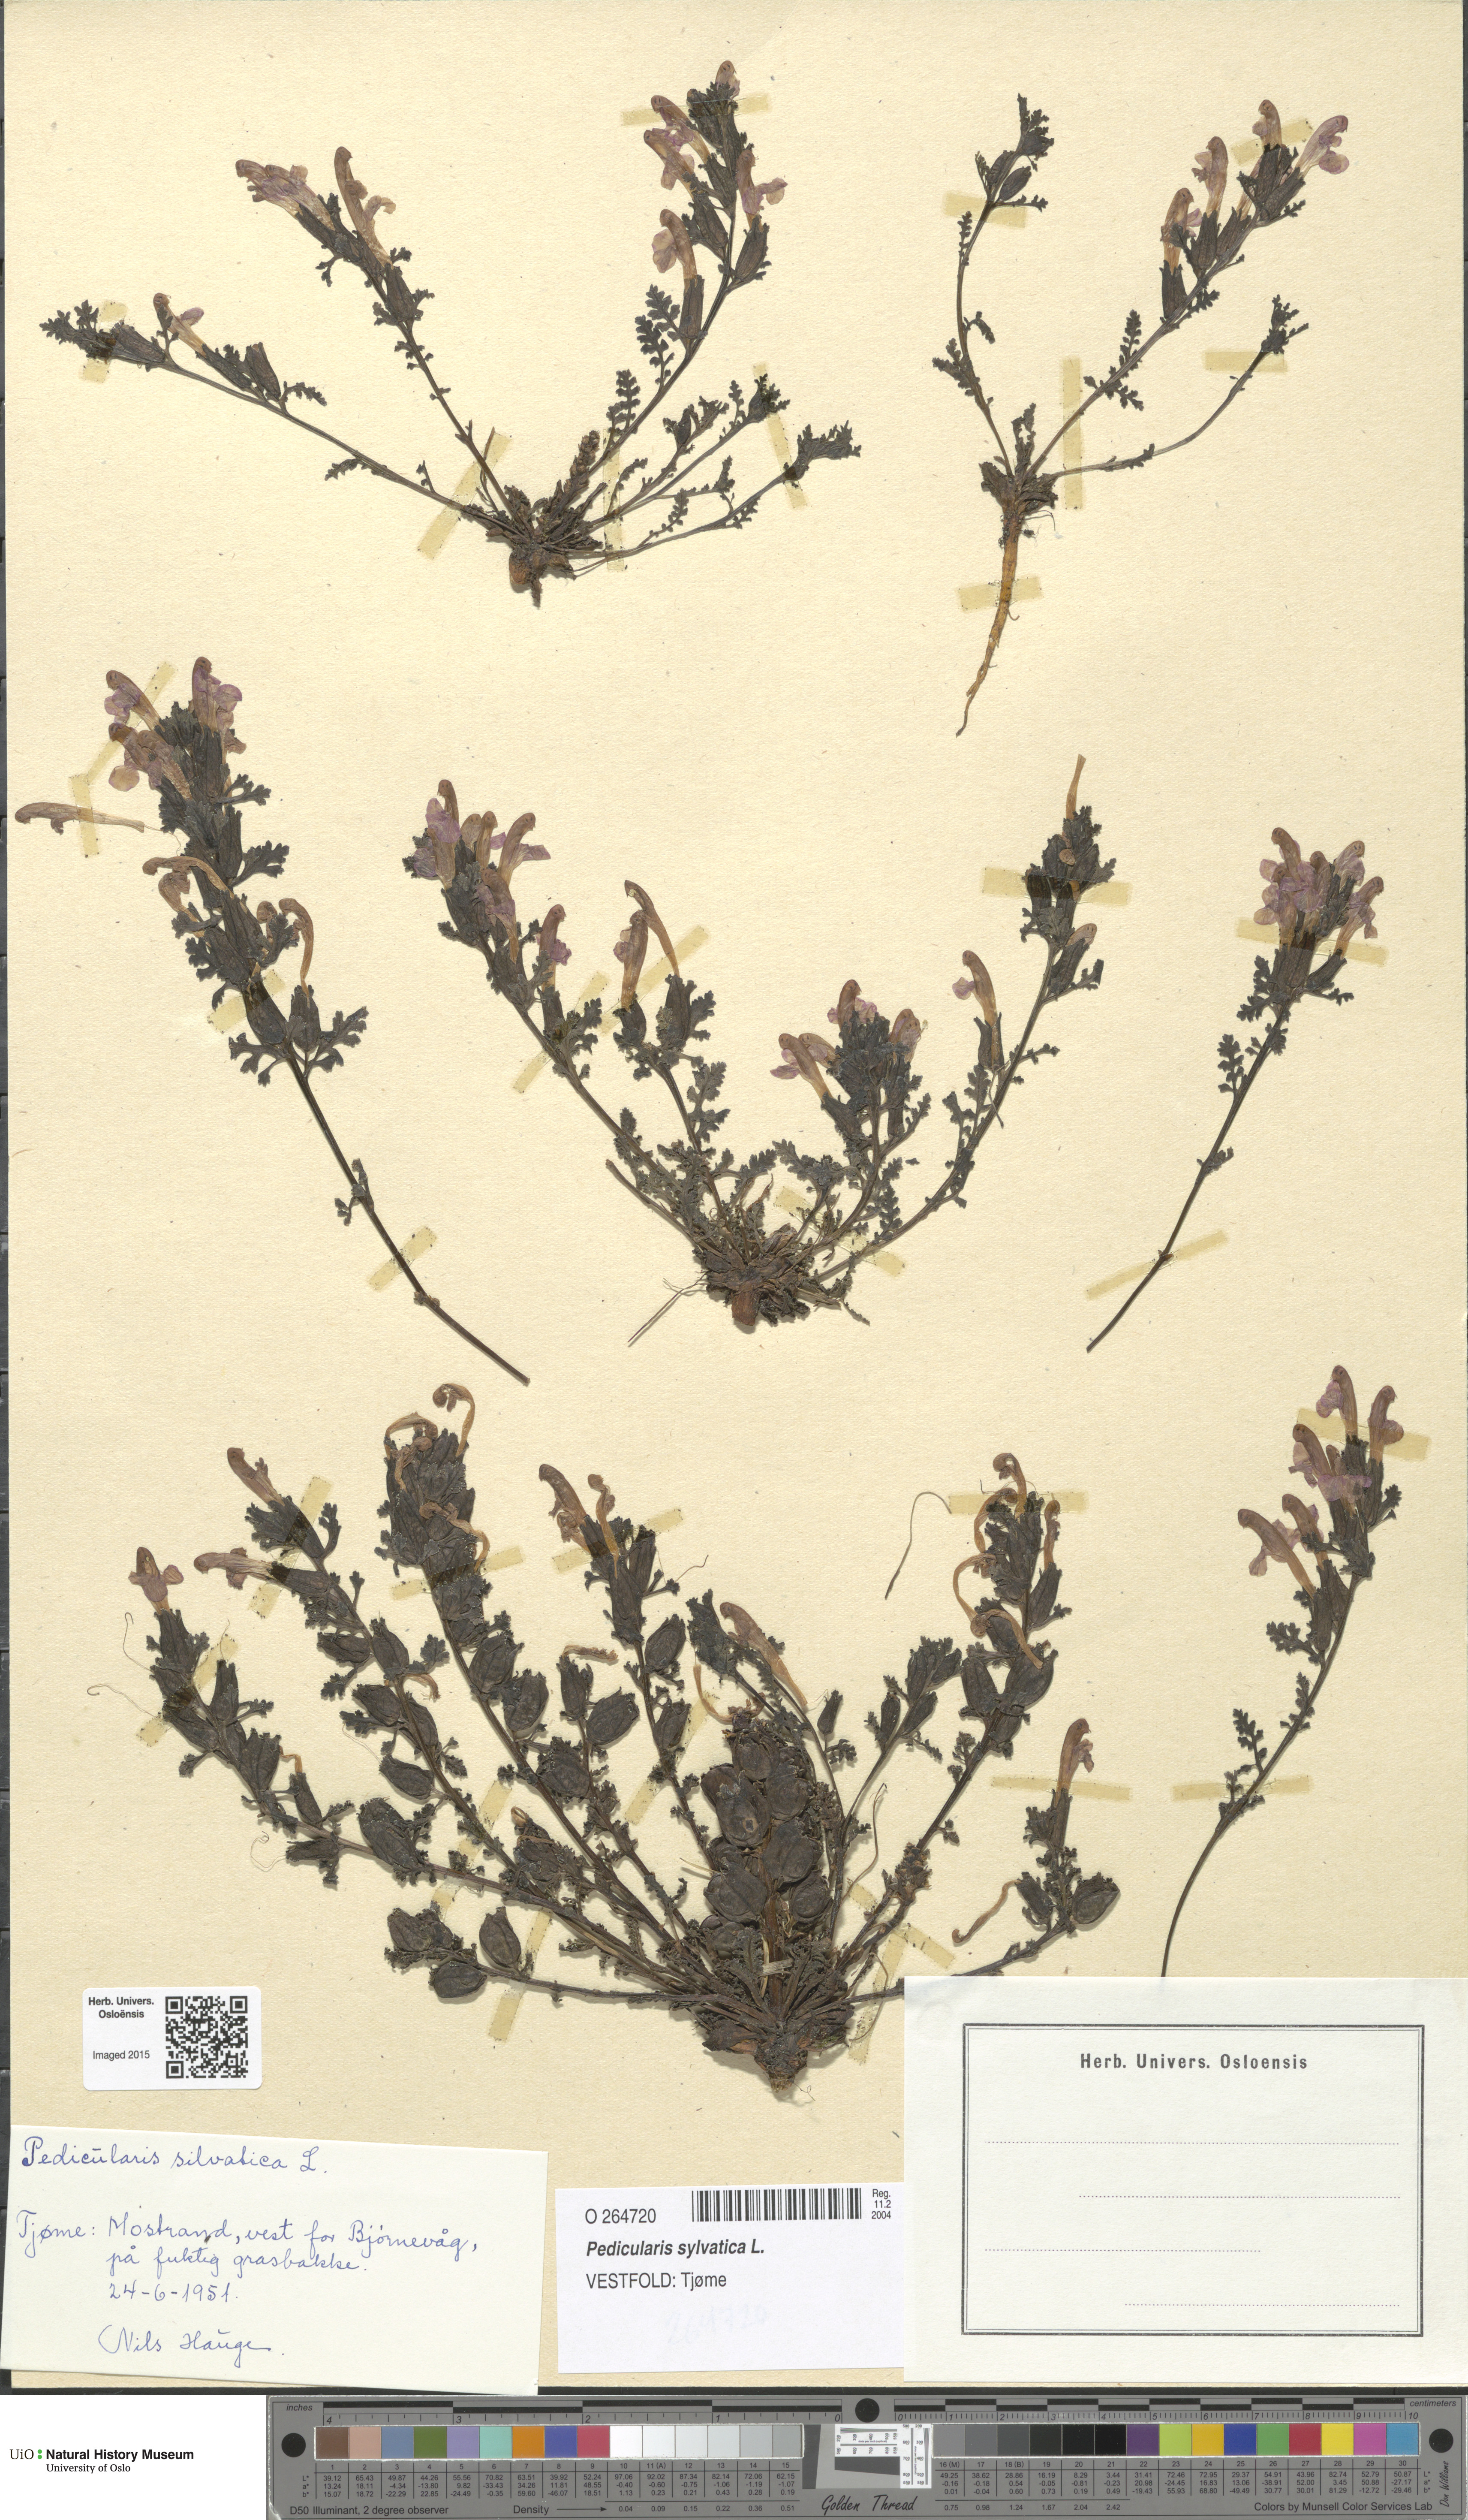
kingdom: Plantae
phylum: Tracheophyta
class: Magnoliopsida
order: Lamiales
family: Orobanchaceae
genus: Pedicularis
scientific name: Pedicularis sylvatica
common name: Lousewort
